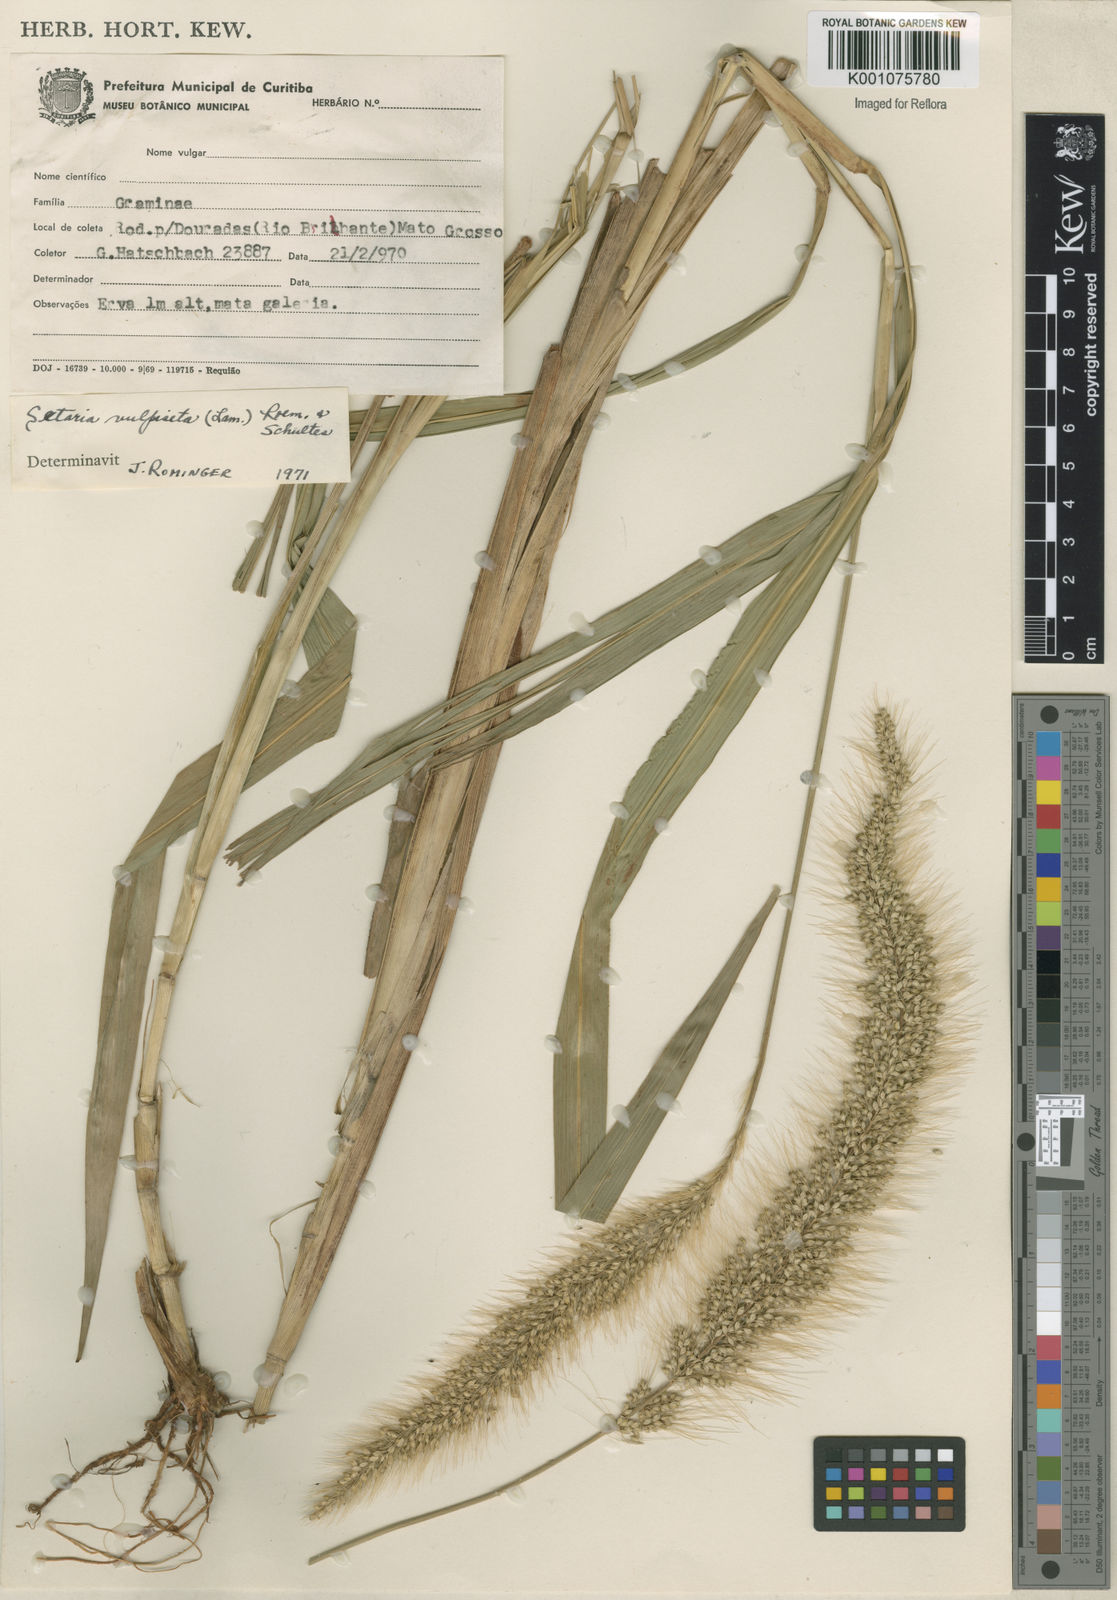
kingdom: Plantae
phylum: Tracheophyta
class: Liliopsida
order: Poales
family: Poaceae
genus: Setaria
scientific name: Setaria vulpiseta
